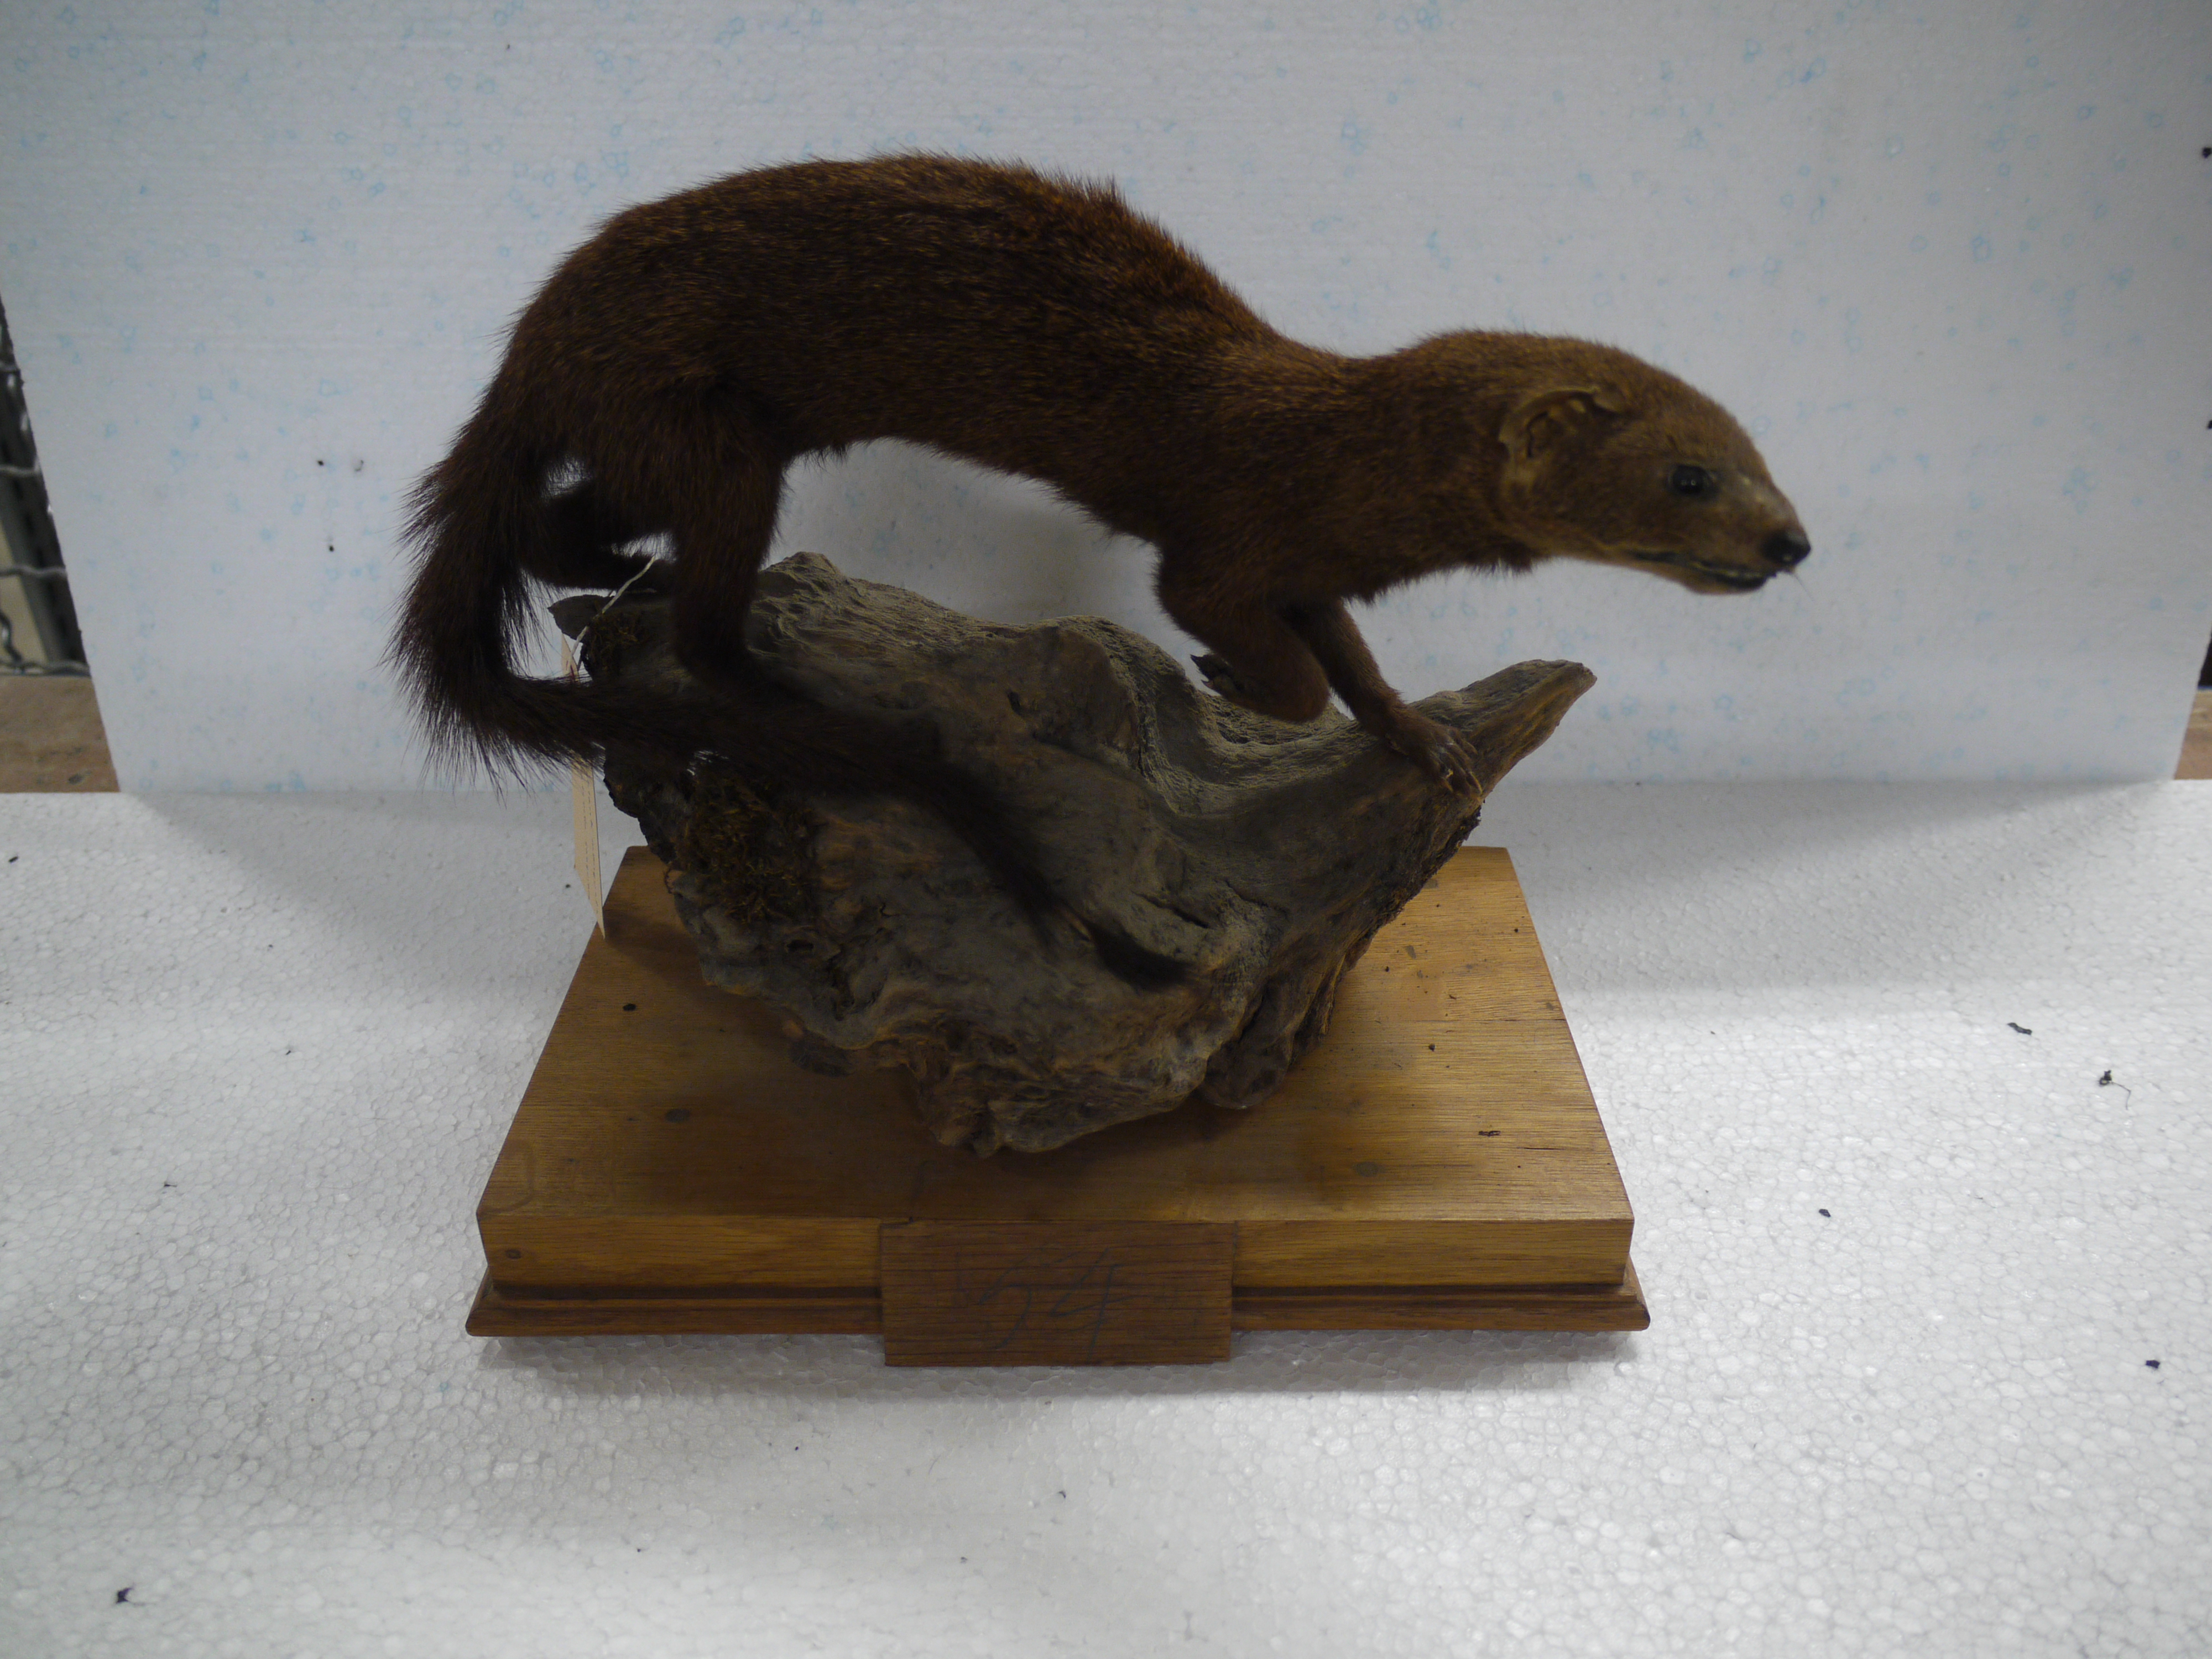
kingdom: Animalia
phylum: Chordata
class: Mammalia
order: Carnivora
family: Herpestidae
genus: Galerella
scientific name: Galerella sanguinea
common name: Slender mongoose
